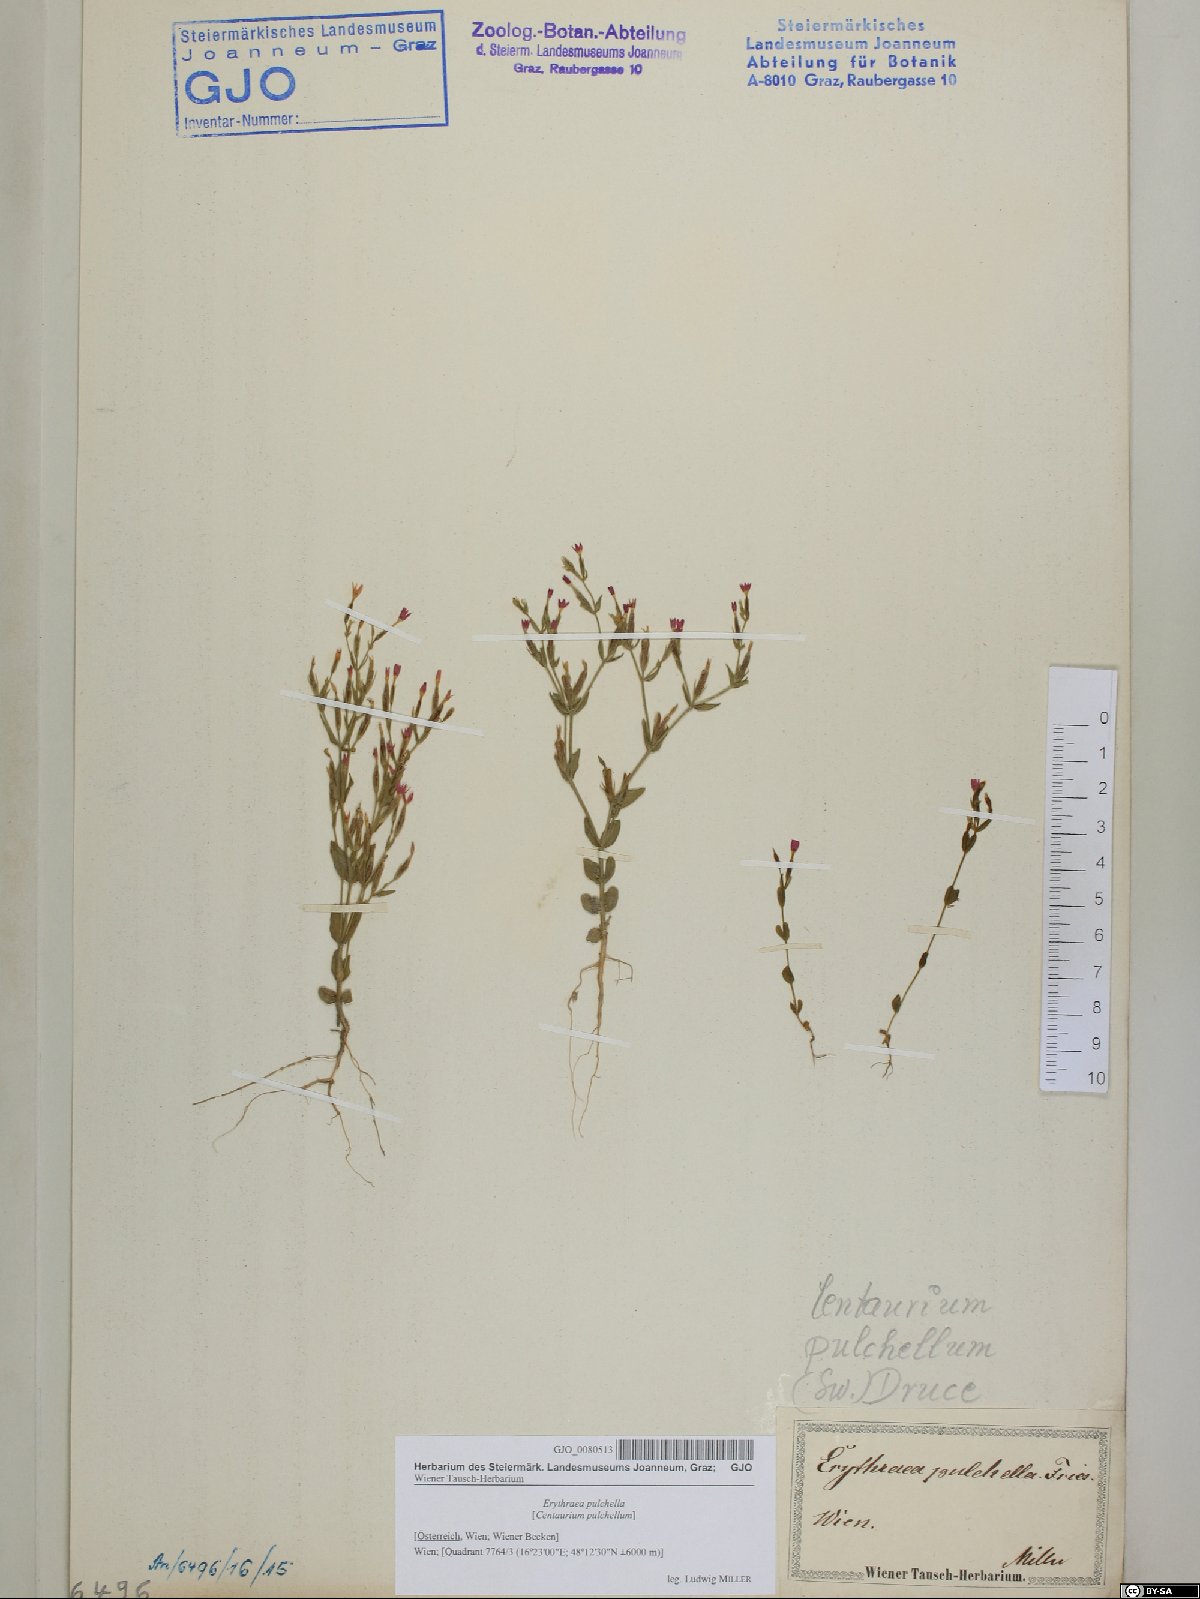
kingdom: Plantae
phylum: Tracheophyta
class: Magnoliopsida
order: Gentianales
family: Gentianaceae
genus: Centaurium
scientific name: Centaurium pulchellum
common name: Lesser centaury
